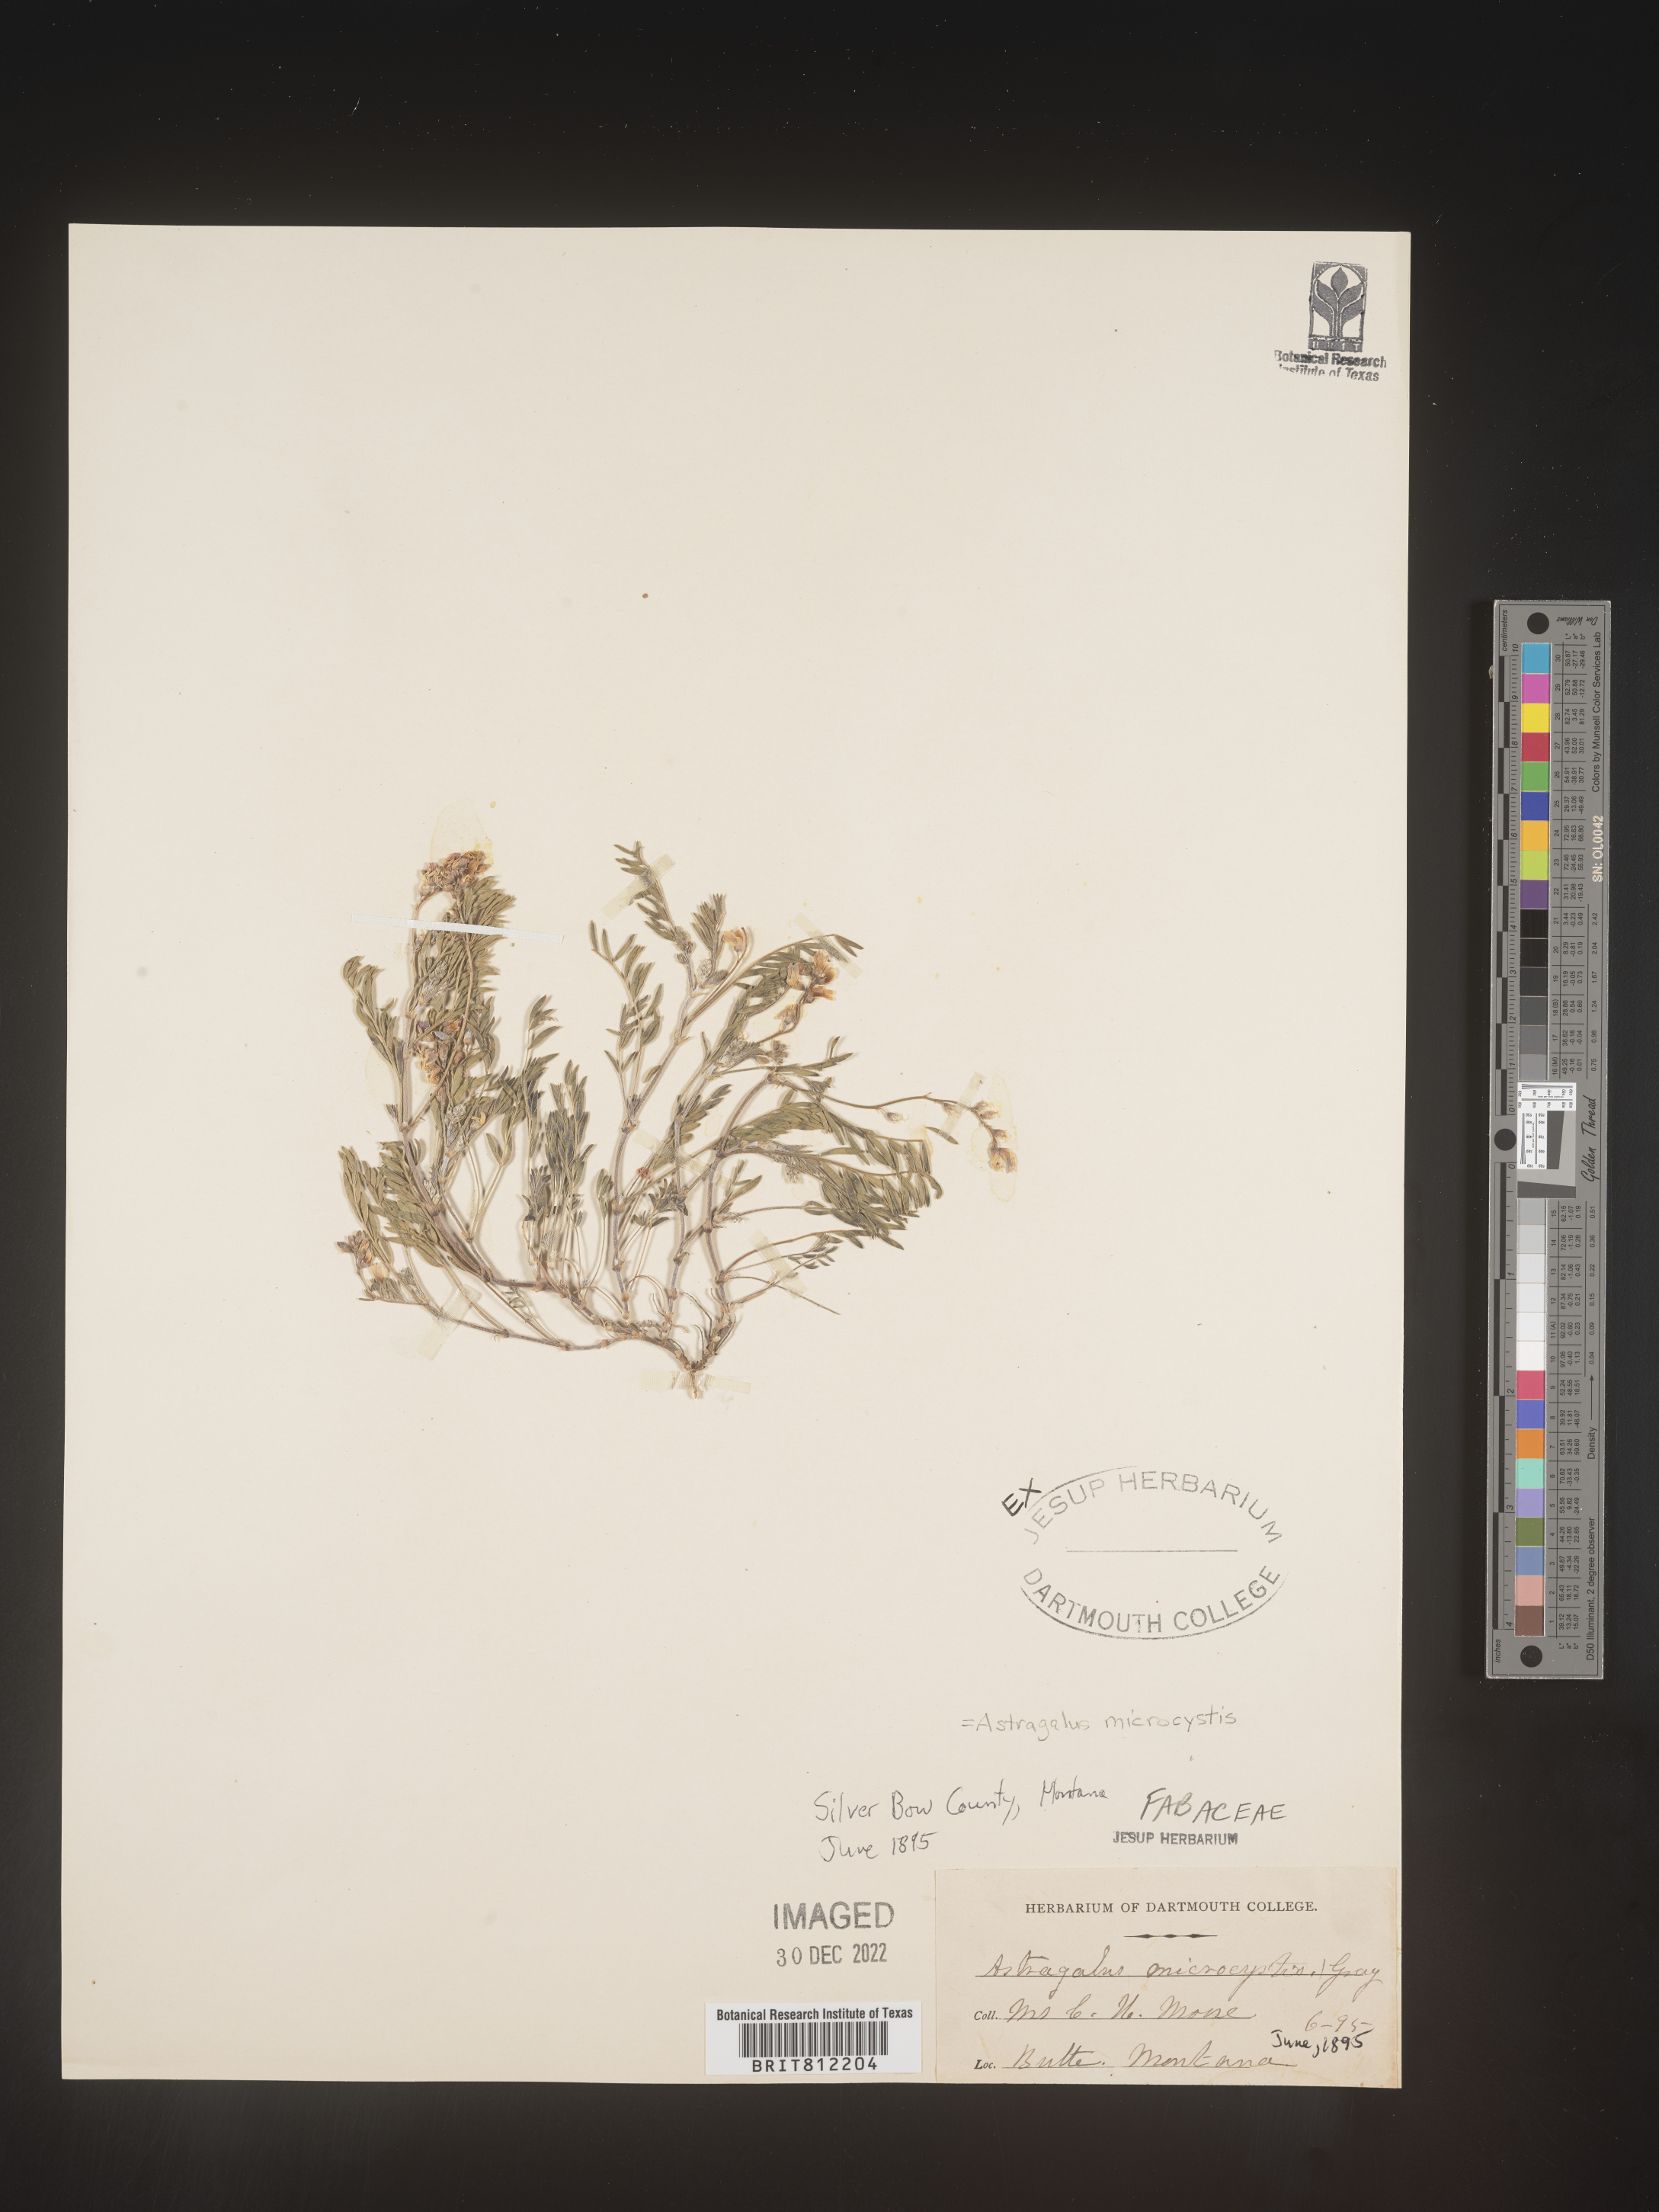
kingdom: Plantae
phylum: Tracheophyta
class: Magnoliopsida
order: Fabales
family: Fabaceae
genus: Astragalus
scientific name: Astragalus
